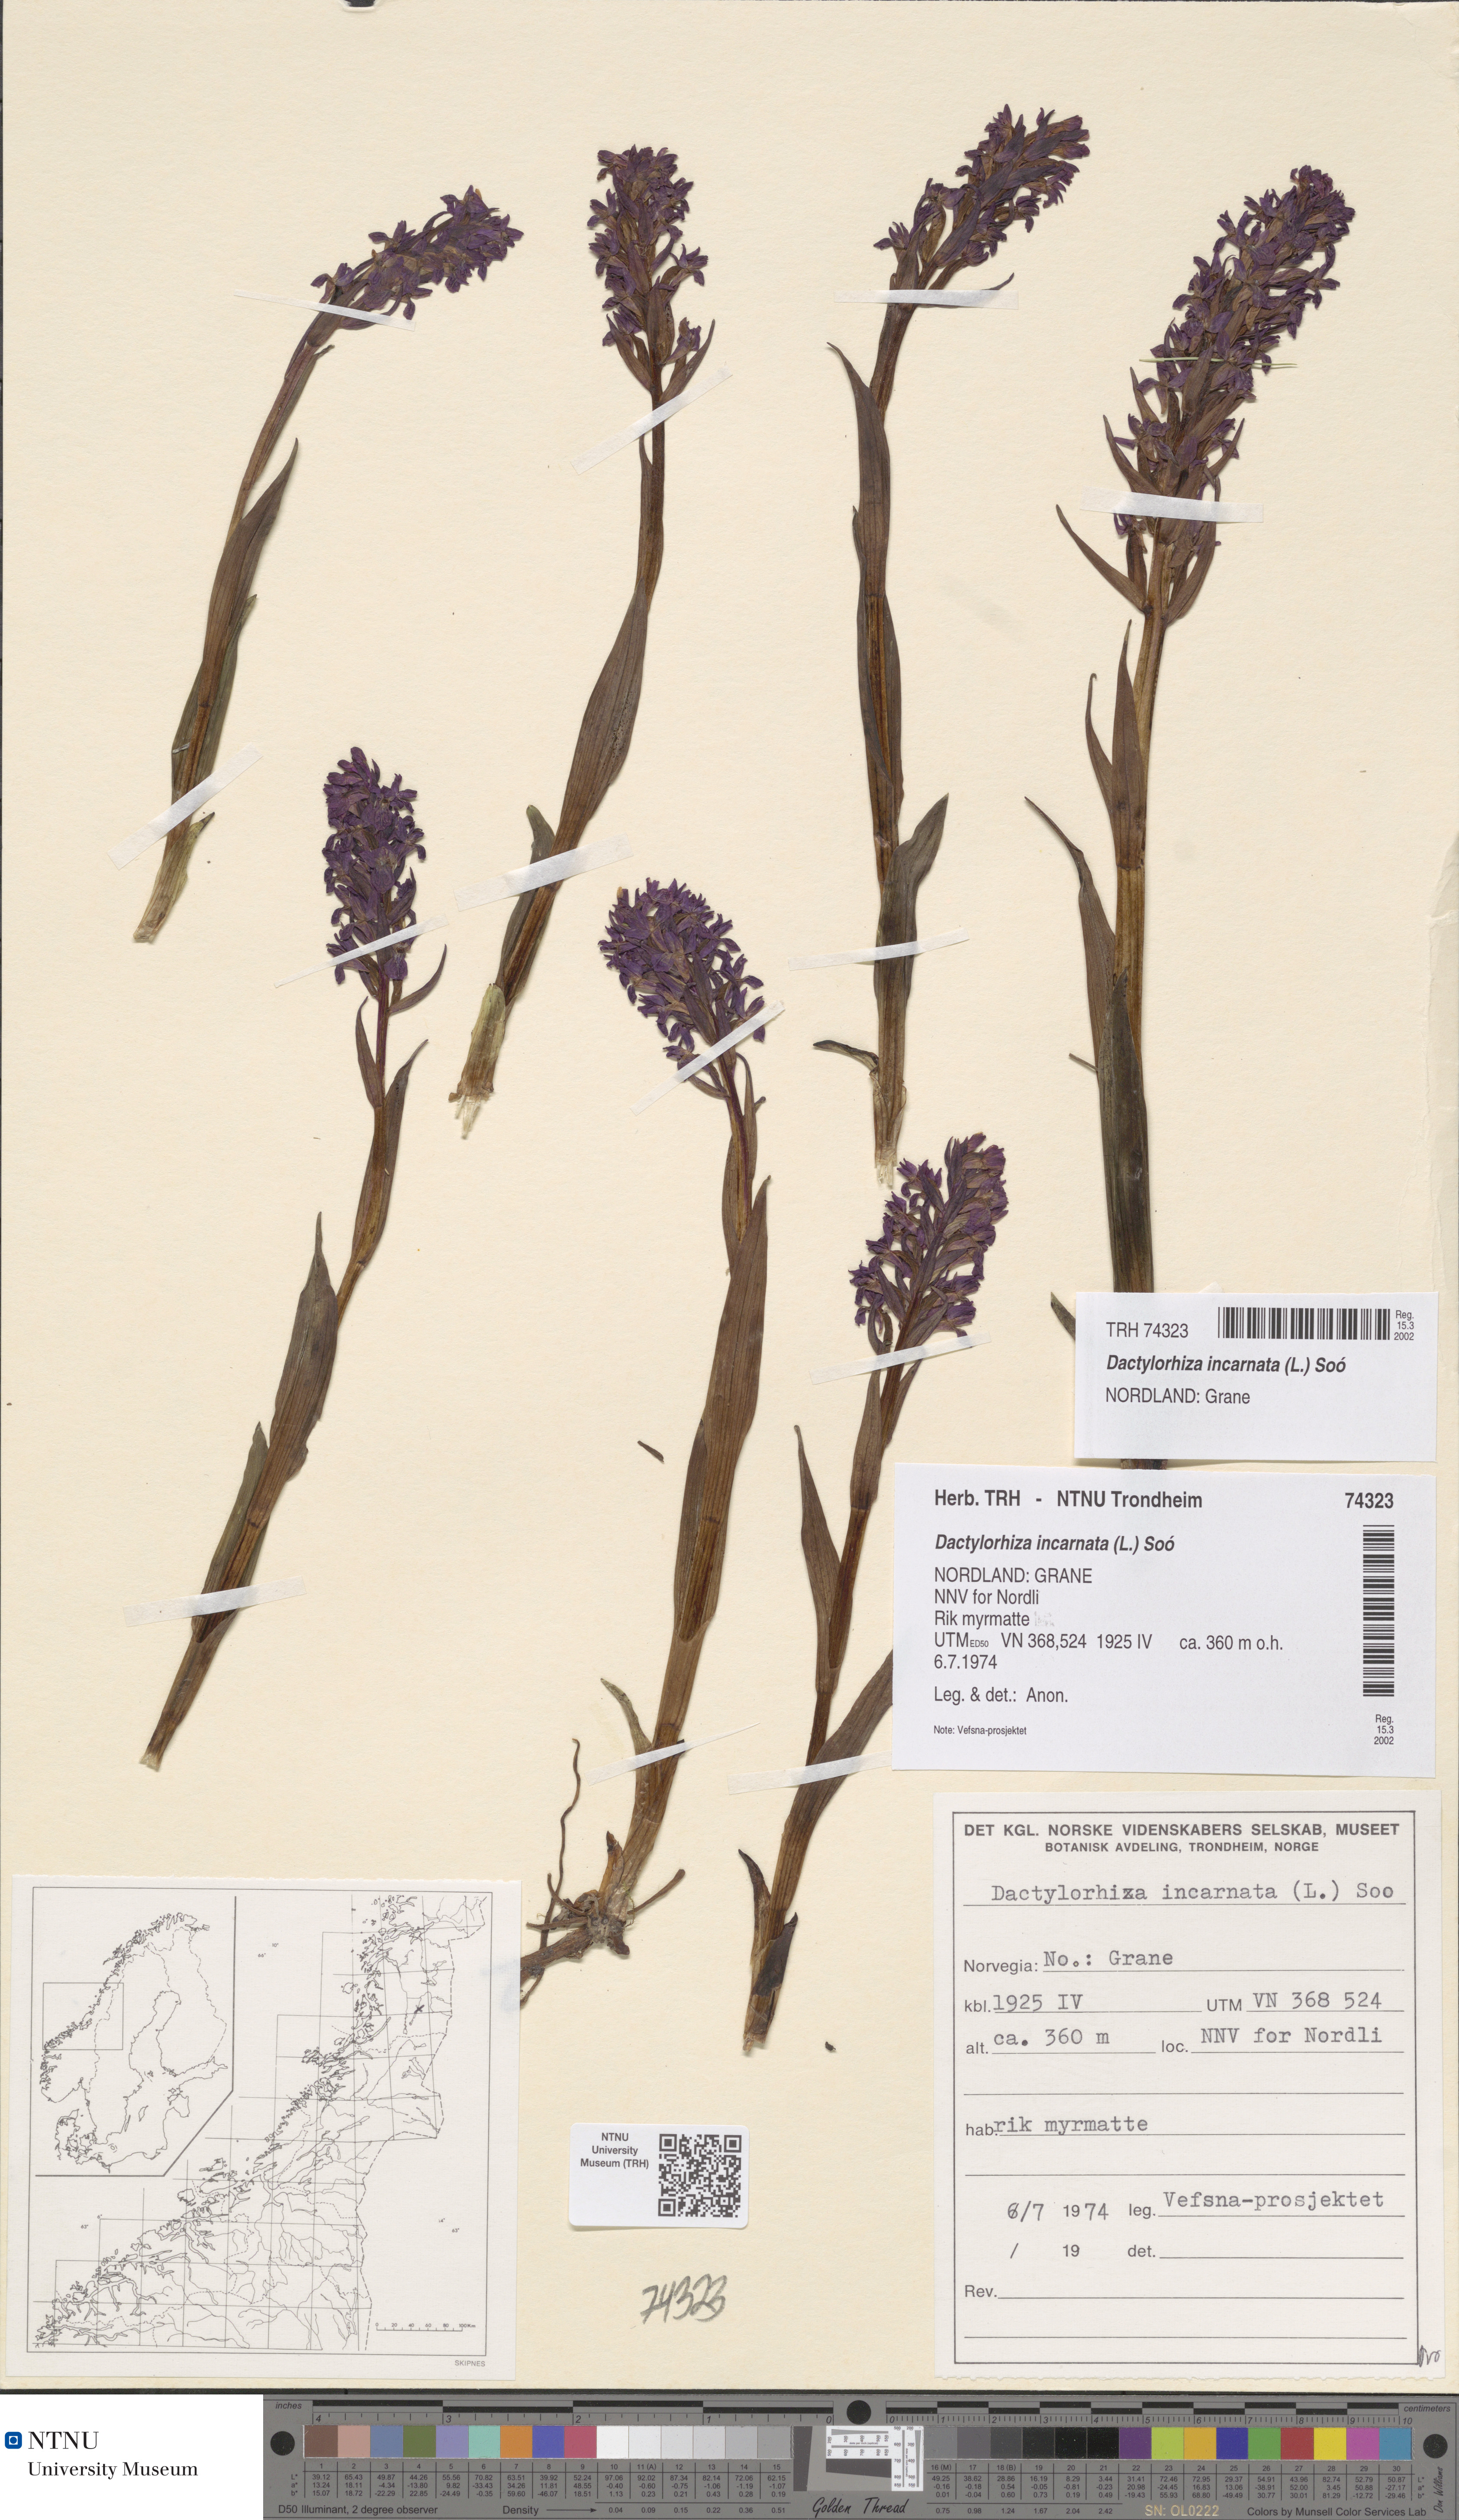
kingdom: Plantae
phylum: Tracheophyta
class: Liliopsida
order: Asparagales
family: Orchidaceae
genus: Dactylorhiza
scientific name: Dactylorhiza incarnata
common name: Early marsh-orchid
